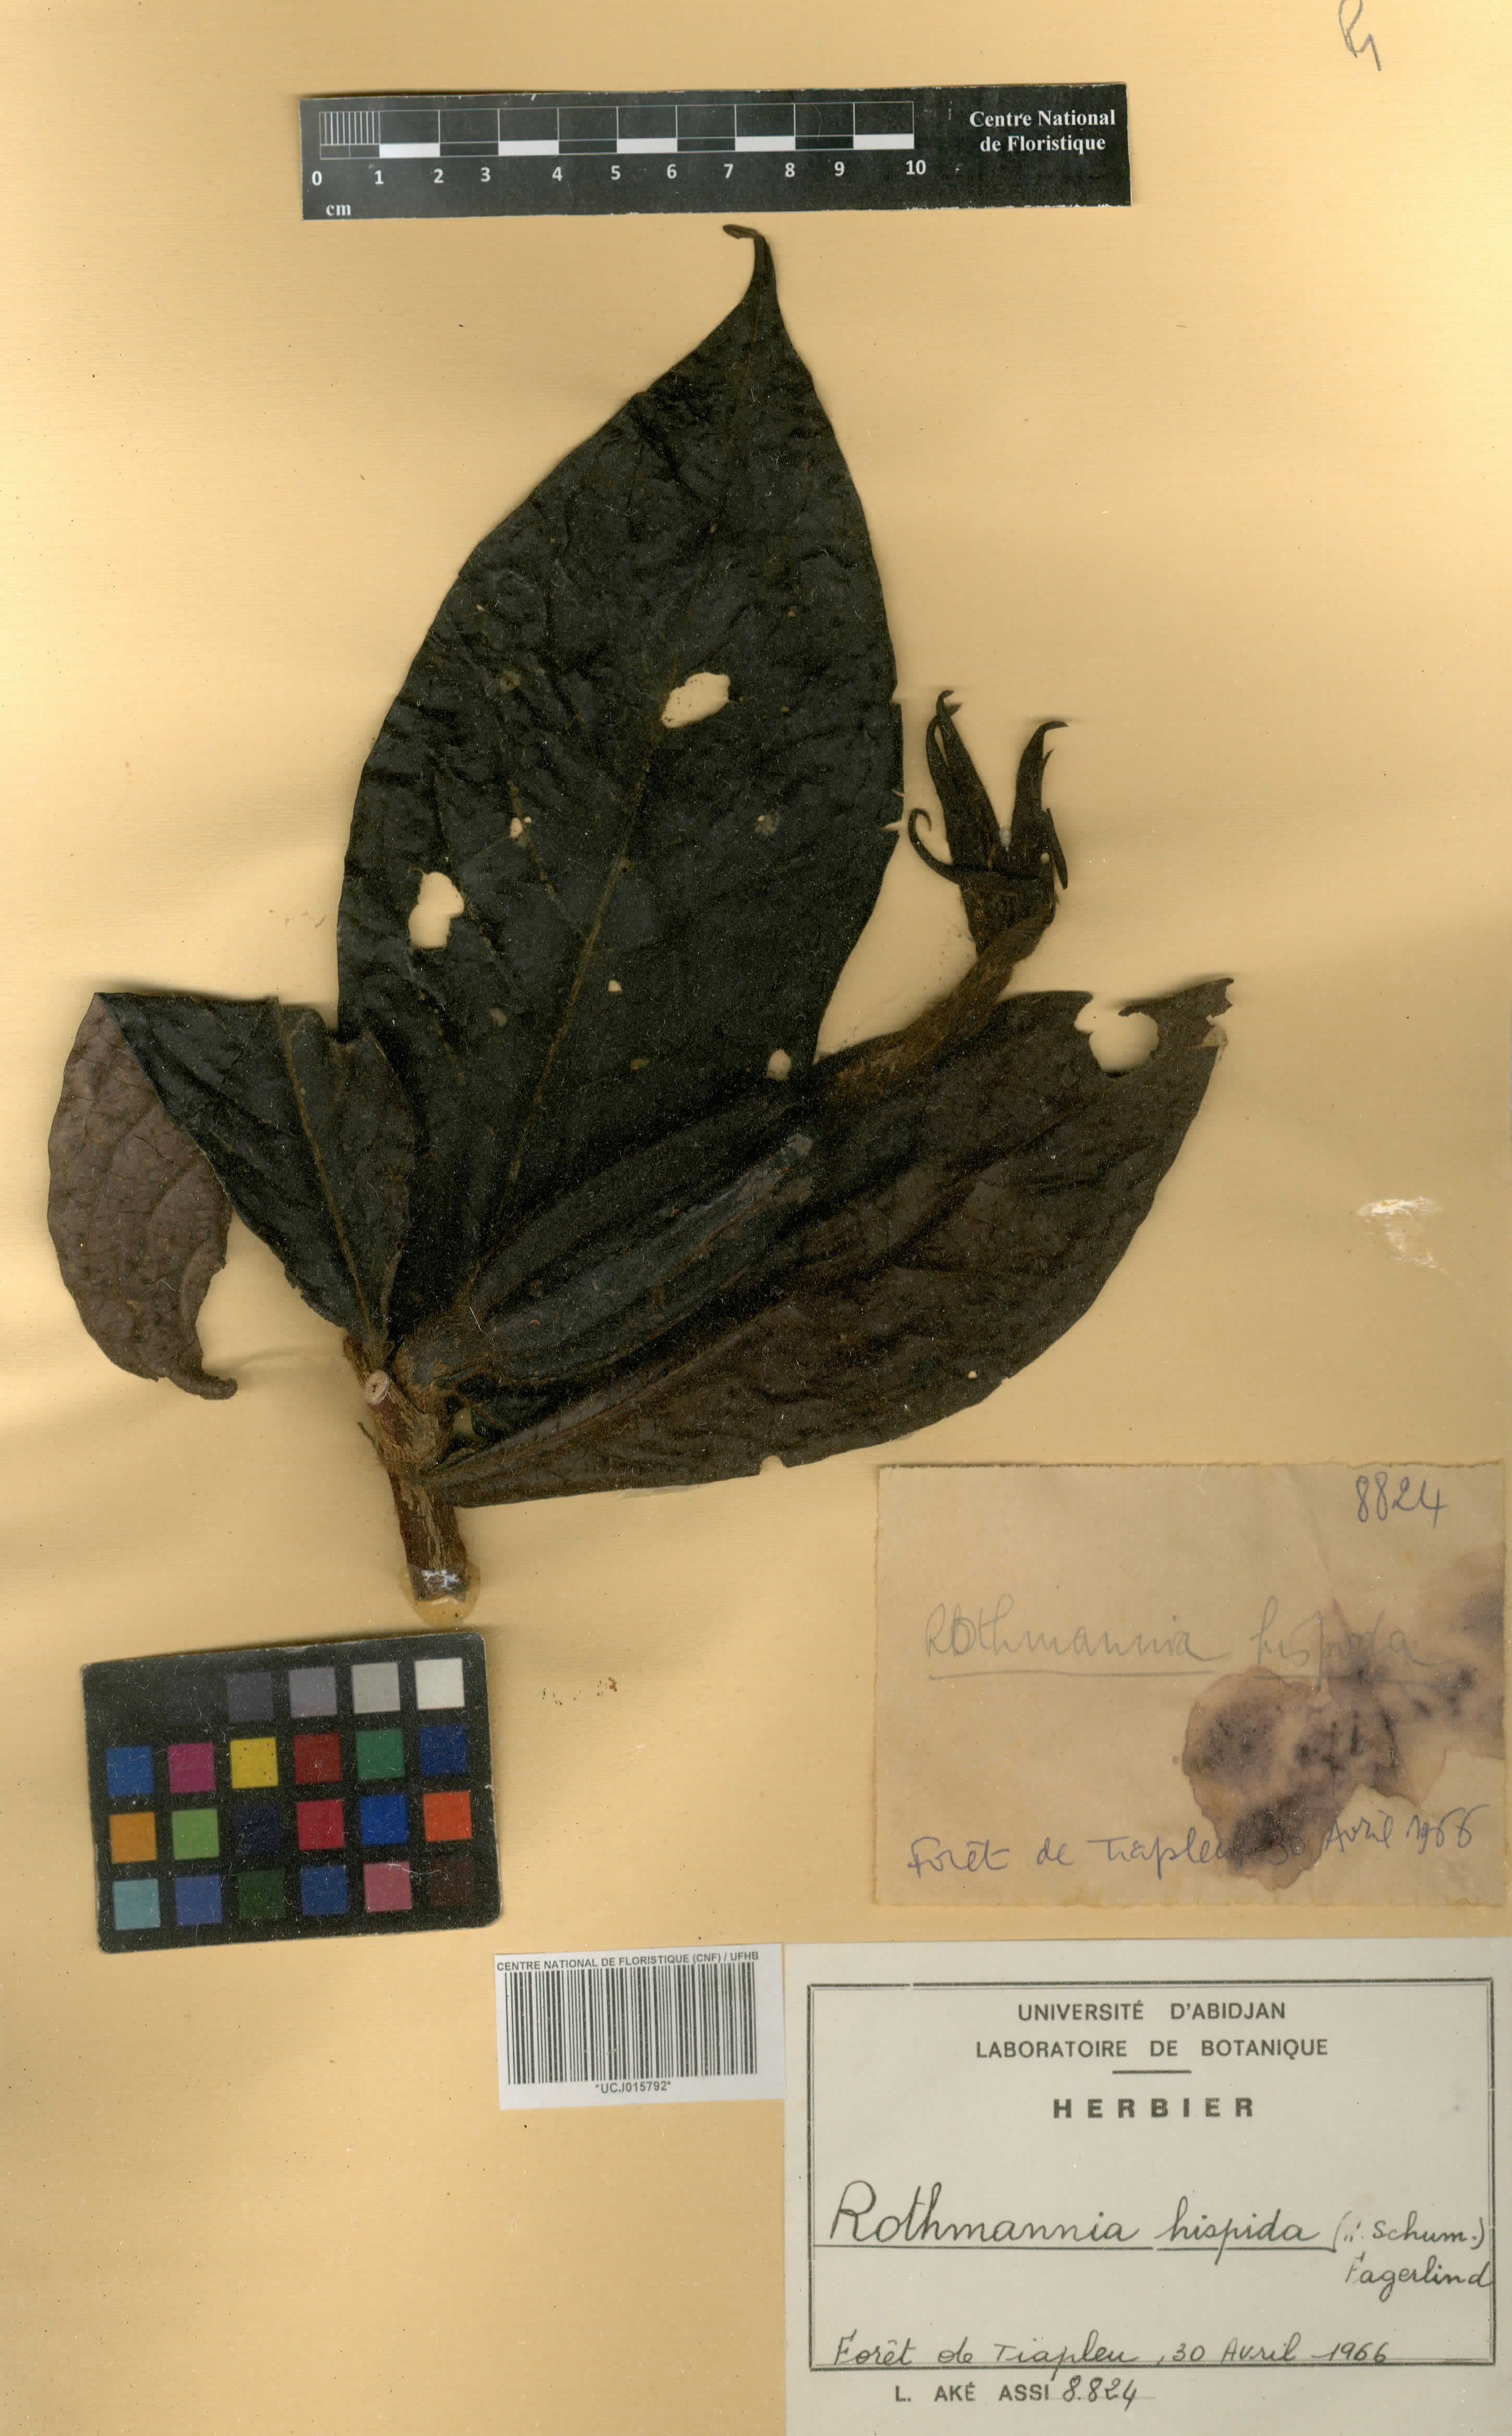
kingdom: Plantae
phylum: Tracheophyta
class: Magnoliopsida
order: Gentianales
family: Rubiaceae
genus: Rothmannia
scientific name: Rothmannia hispida
